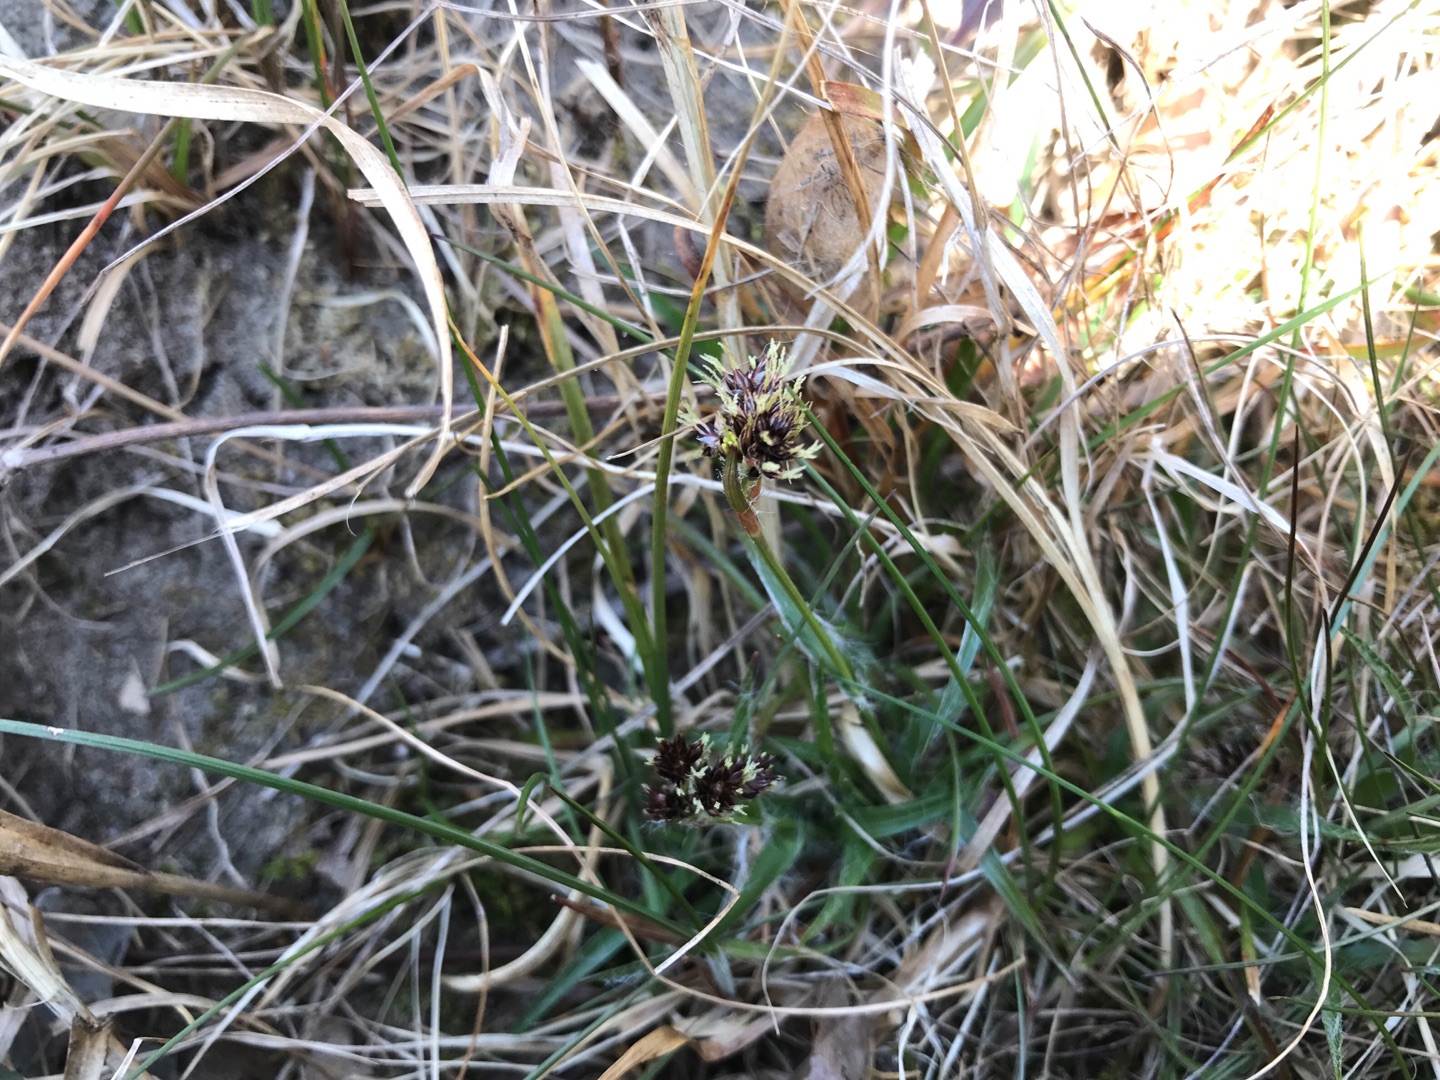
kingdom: Plantae
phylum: Tracheophyta
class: Liliopsida
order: Poales
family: Juncaceae
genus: Luzula
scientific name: Luzula campestris
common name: Mark-frytle
